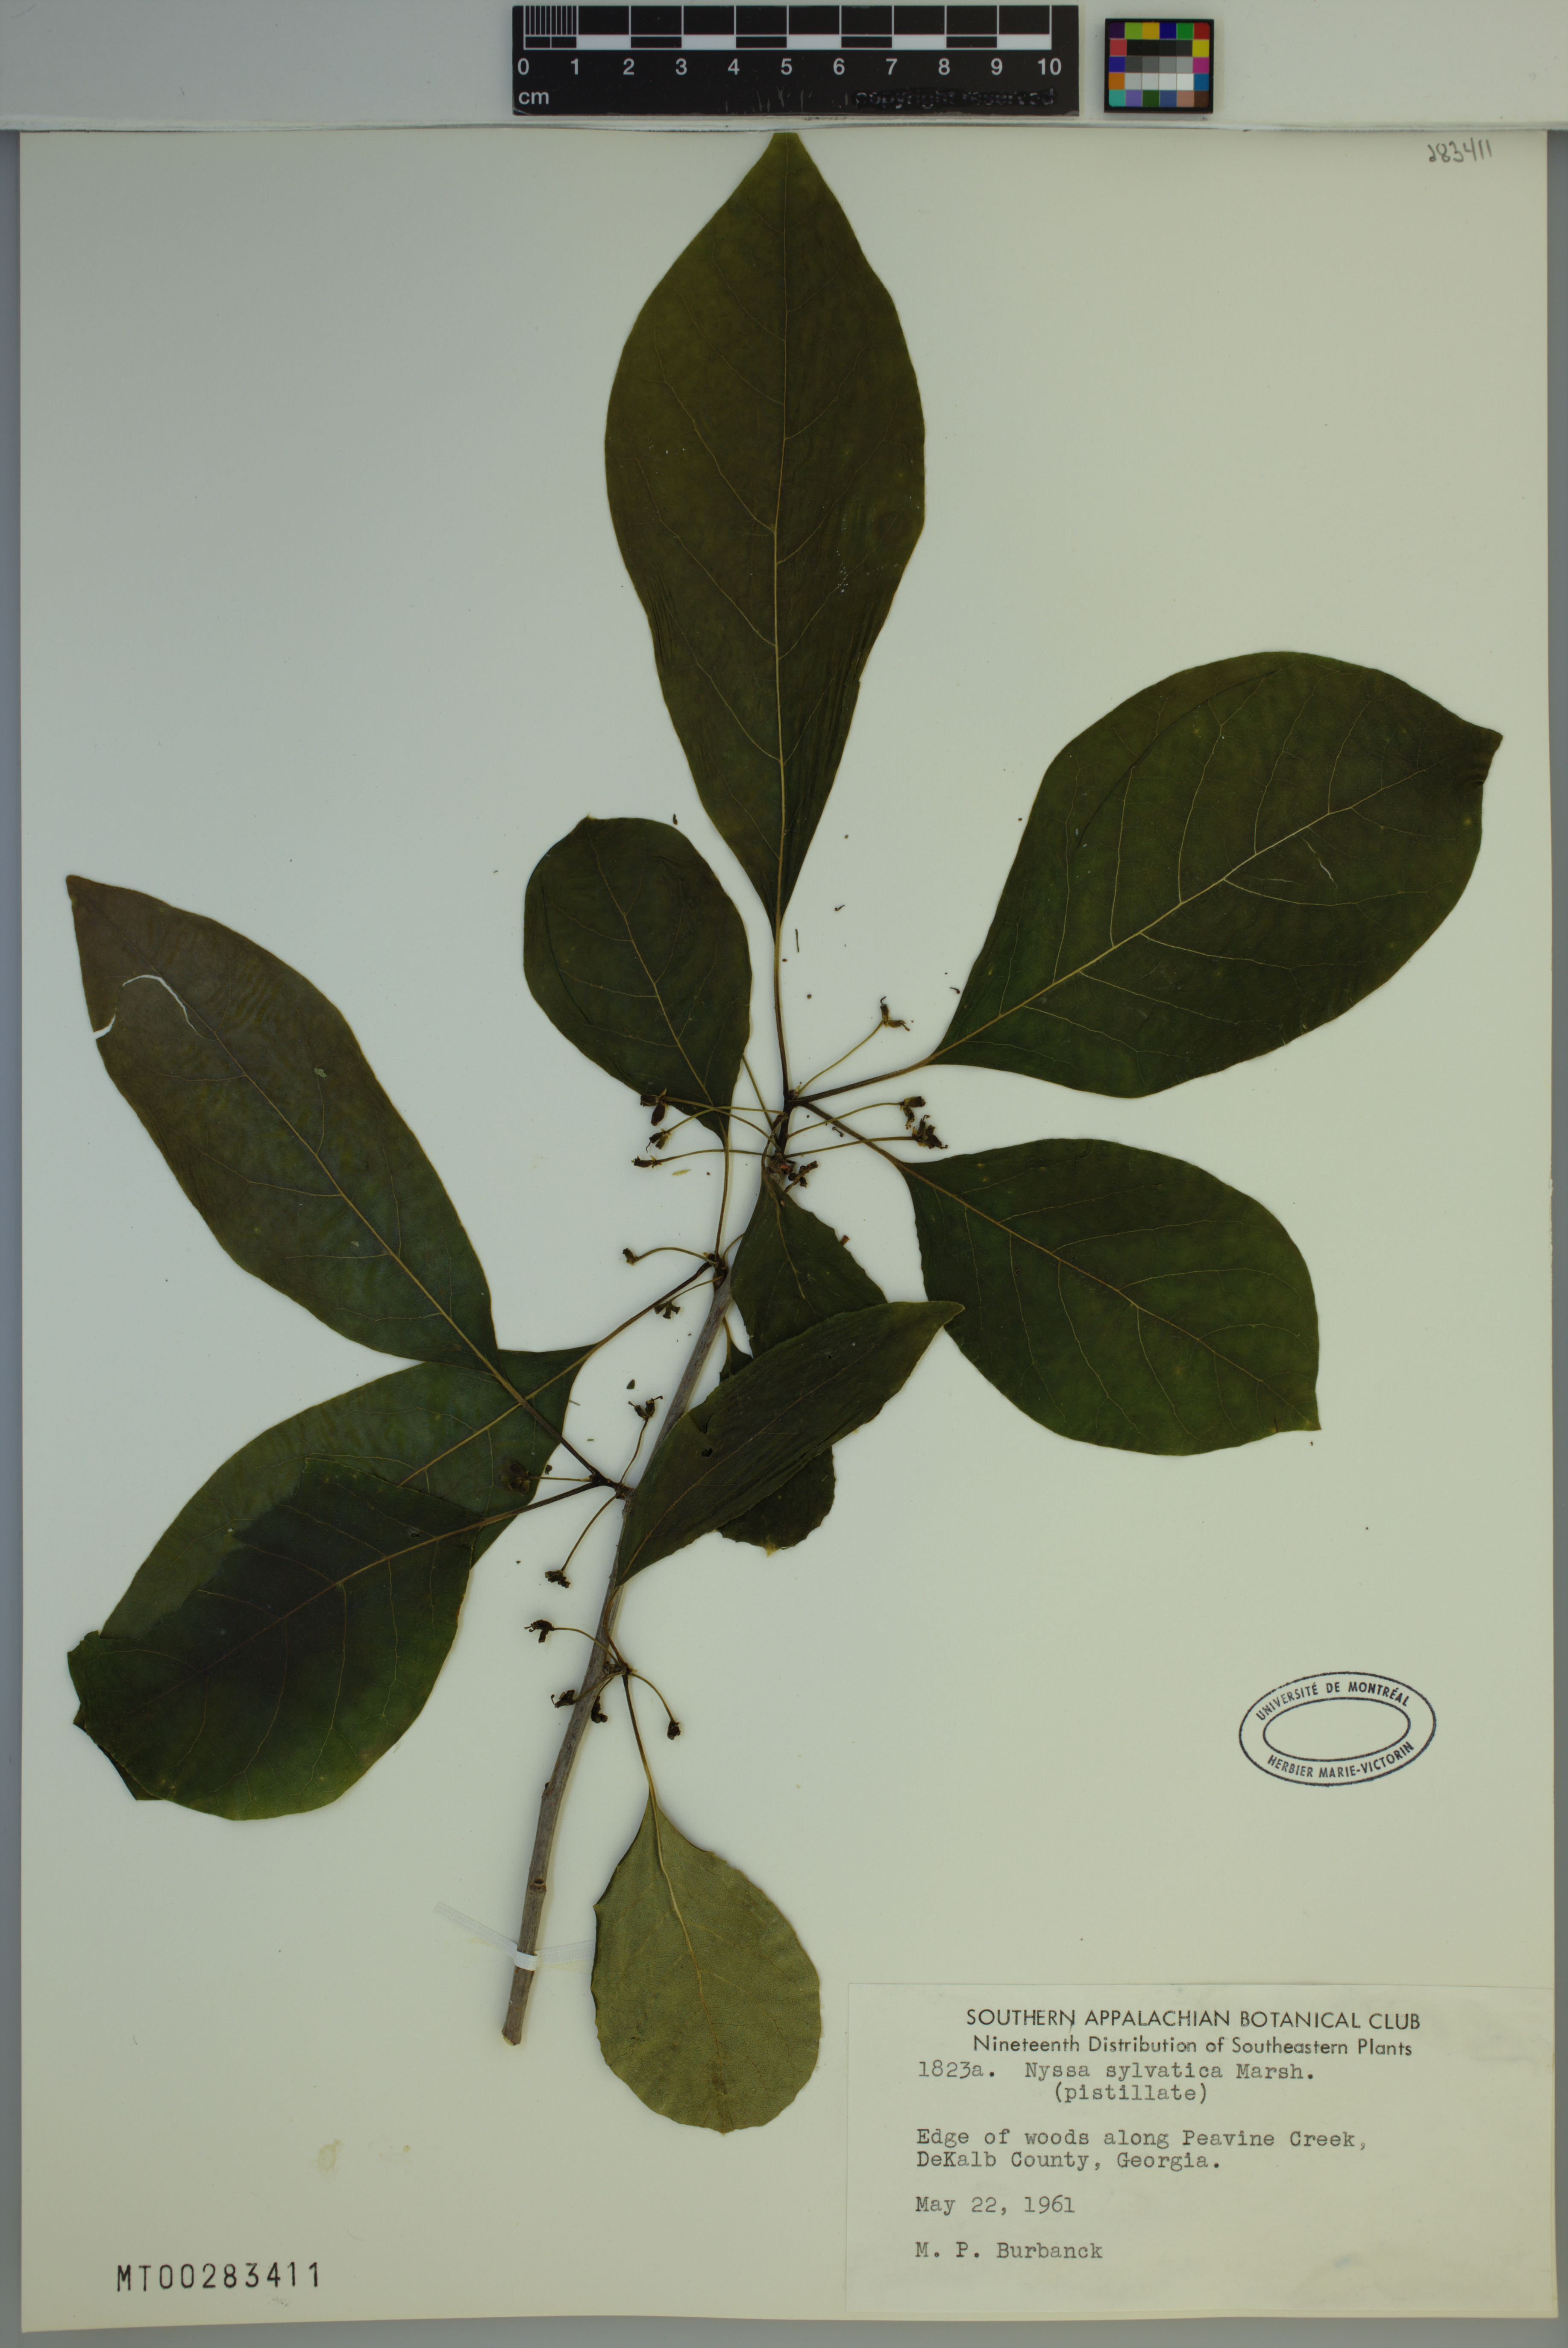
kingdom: Plantae
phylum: Tracheophyta
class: Magnoliopsida
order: Cornales
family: Nyssaceae
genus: Nyssa
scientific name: Nyssa sylvatica
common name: Black tupelo
